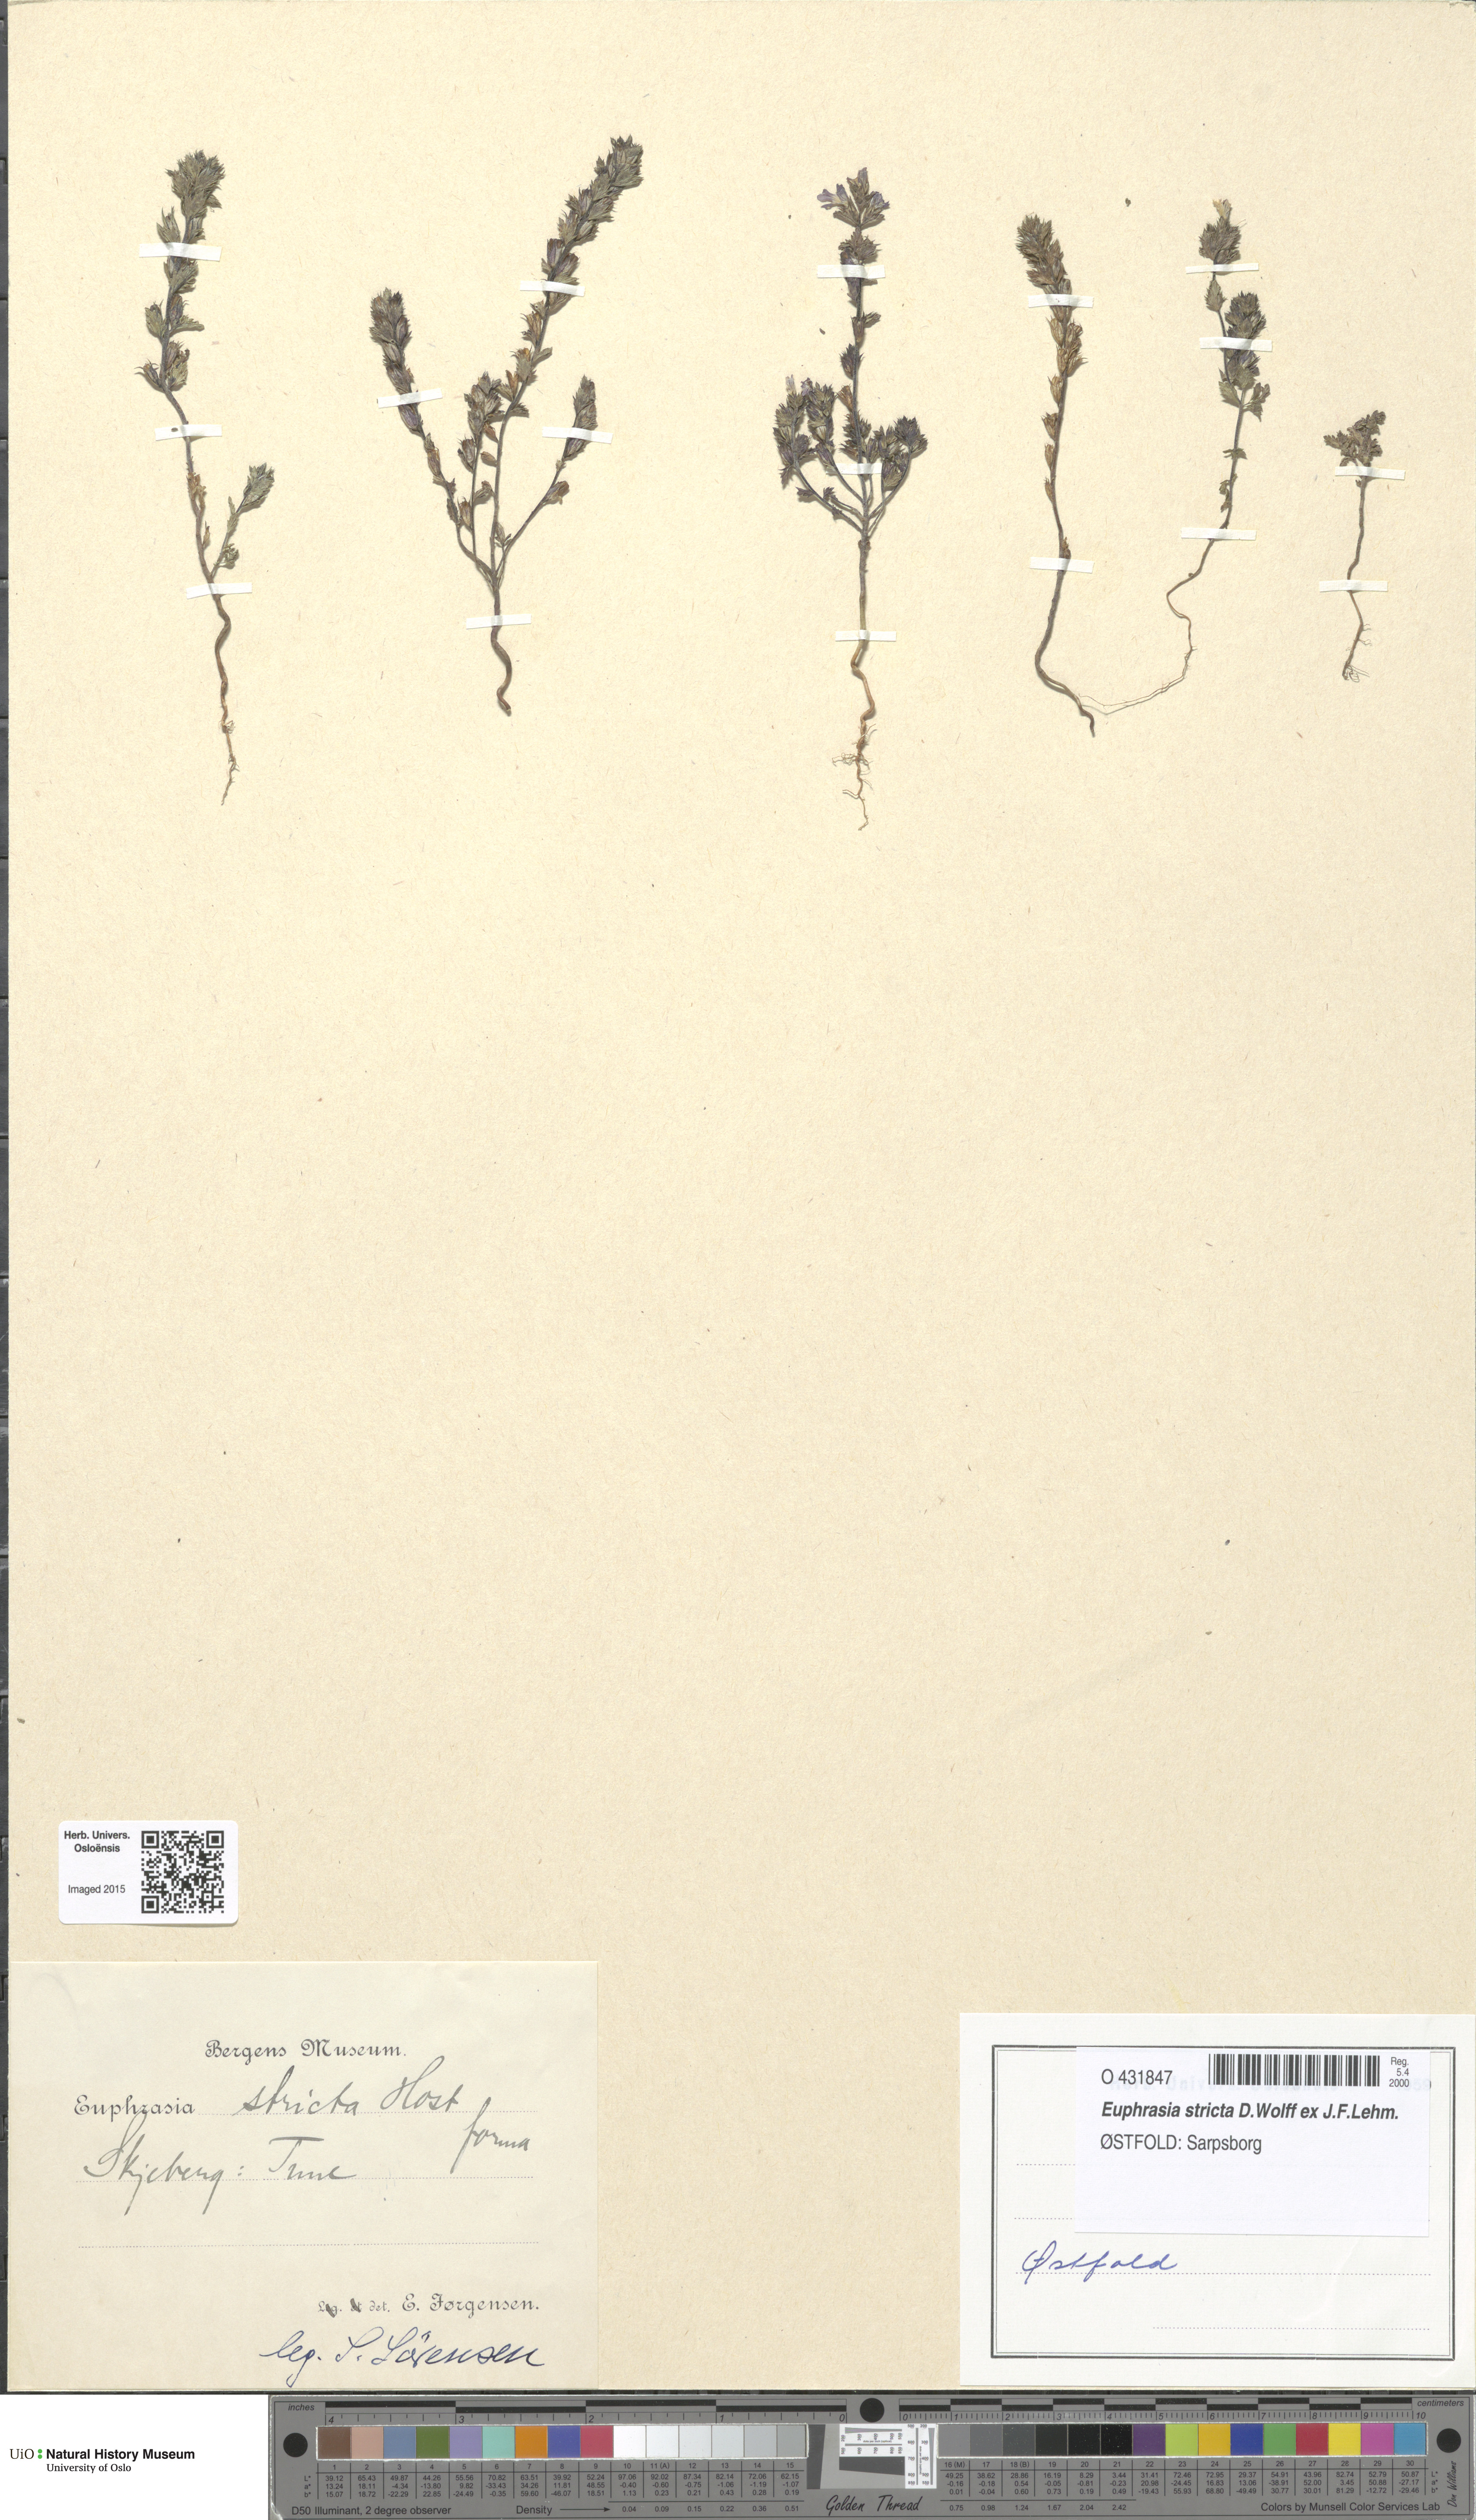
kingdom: Plantae
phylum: Tracheophyta
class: Magnoliopsida
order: Lamiales
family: Orobanchaceae
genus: Euphrasia
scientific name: Euphrasia stricta
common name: Drug eyebright
